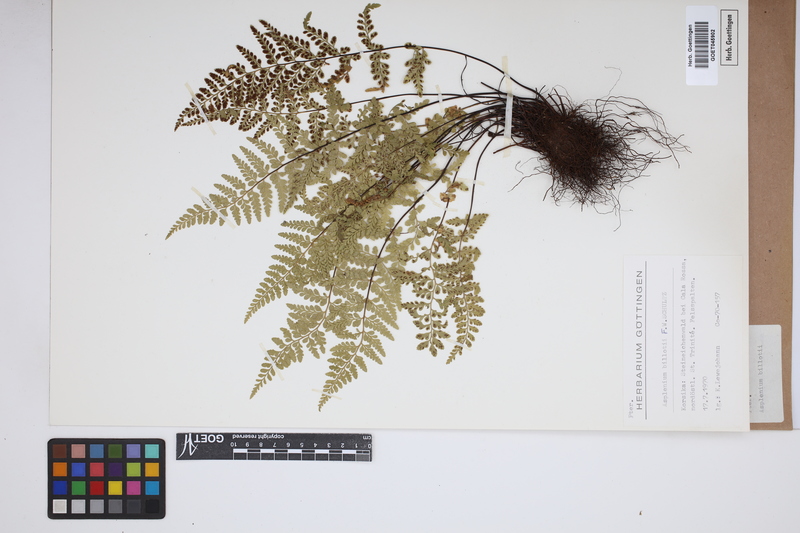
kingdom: Plantae
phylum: Tracheophyta
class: Polypodiopsida
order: Polypodiales
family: Aspleniaceae
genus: Asplenium
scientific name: Asplenium obovatum
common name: Lanceolate spleenwort
